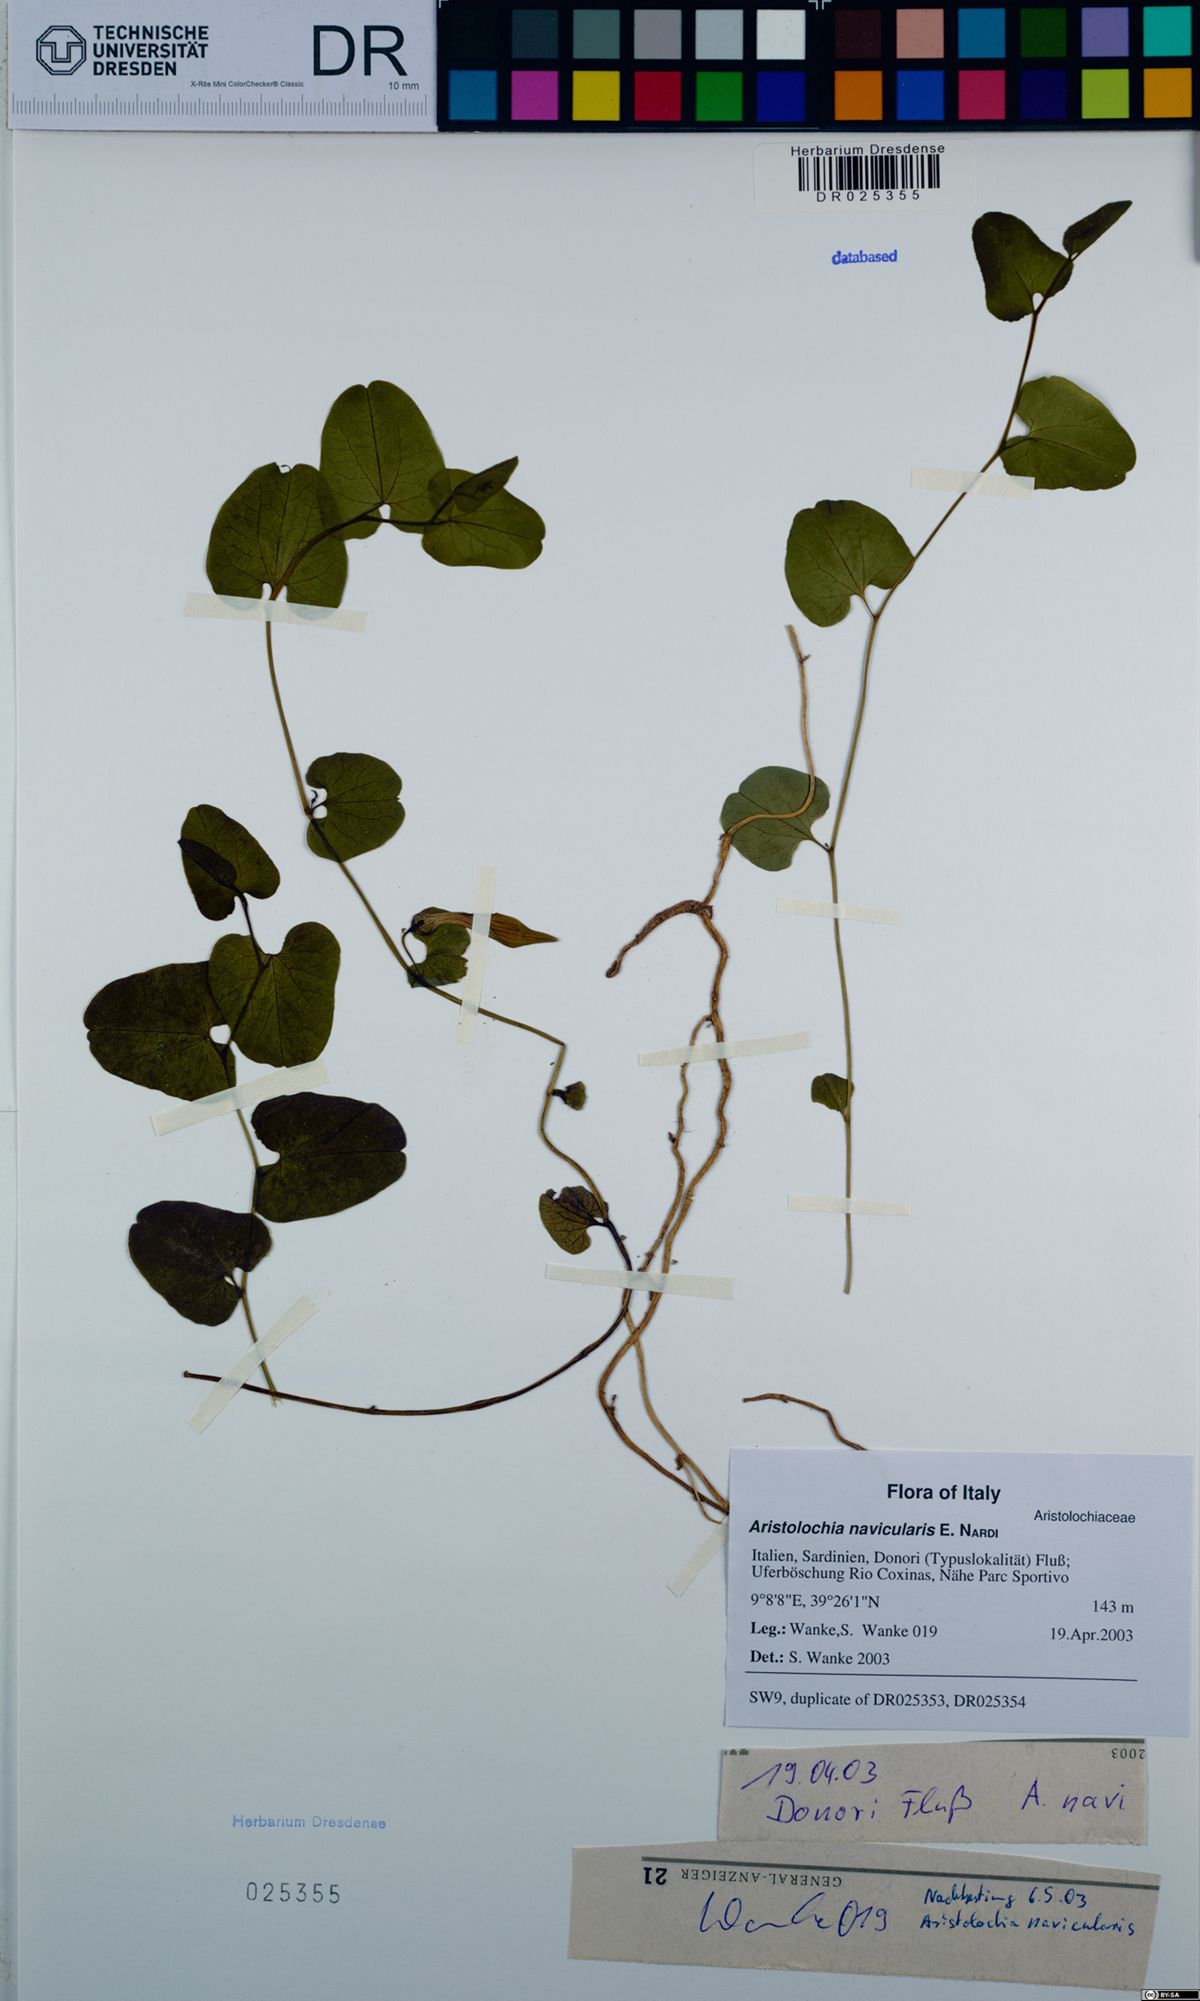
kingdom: Plantae
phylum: Tracheophyta
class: Magnoliopsida
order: Piperales
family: Aristolochiaceae
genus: Aristolochia
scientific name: Aristolochia navicularis
